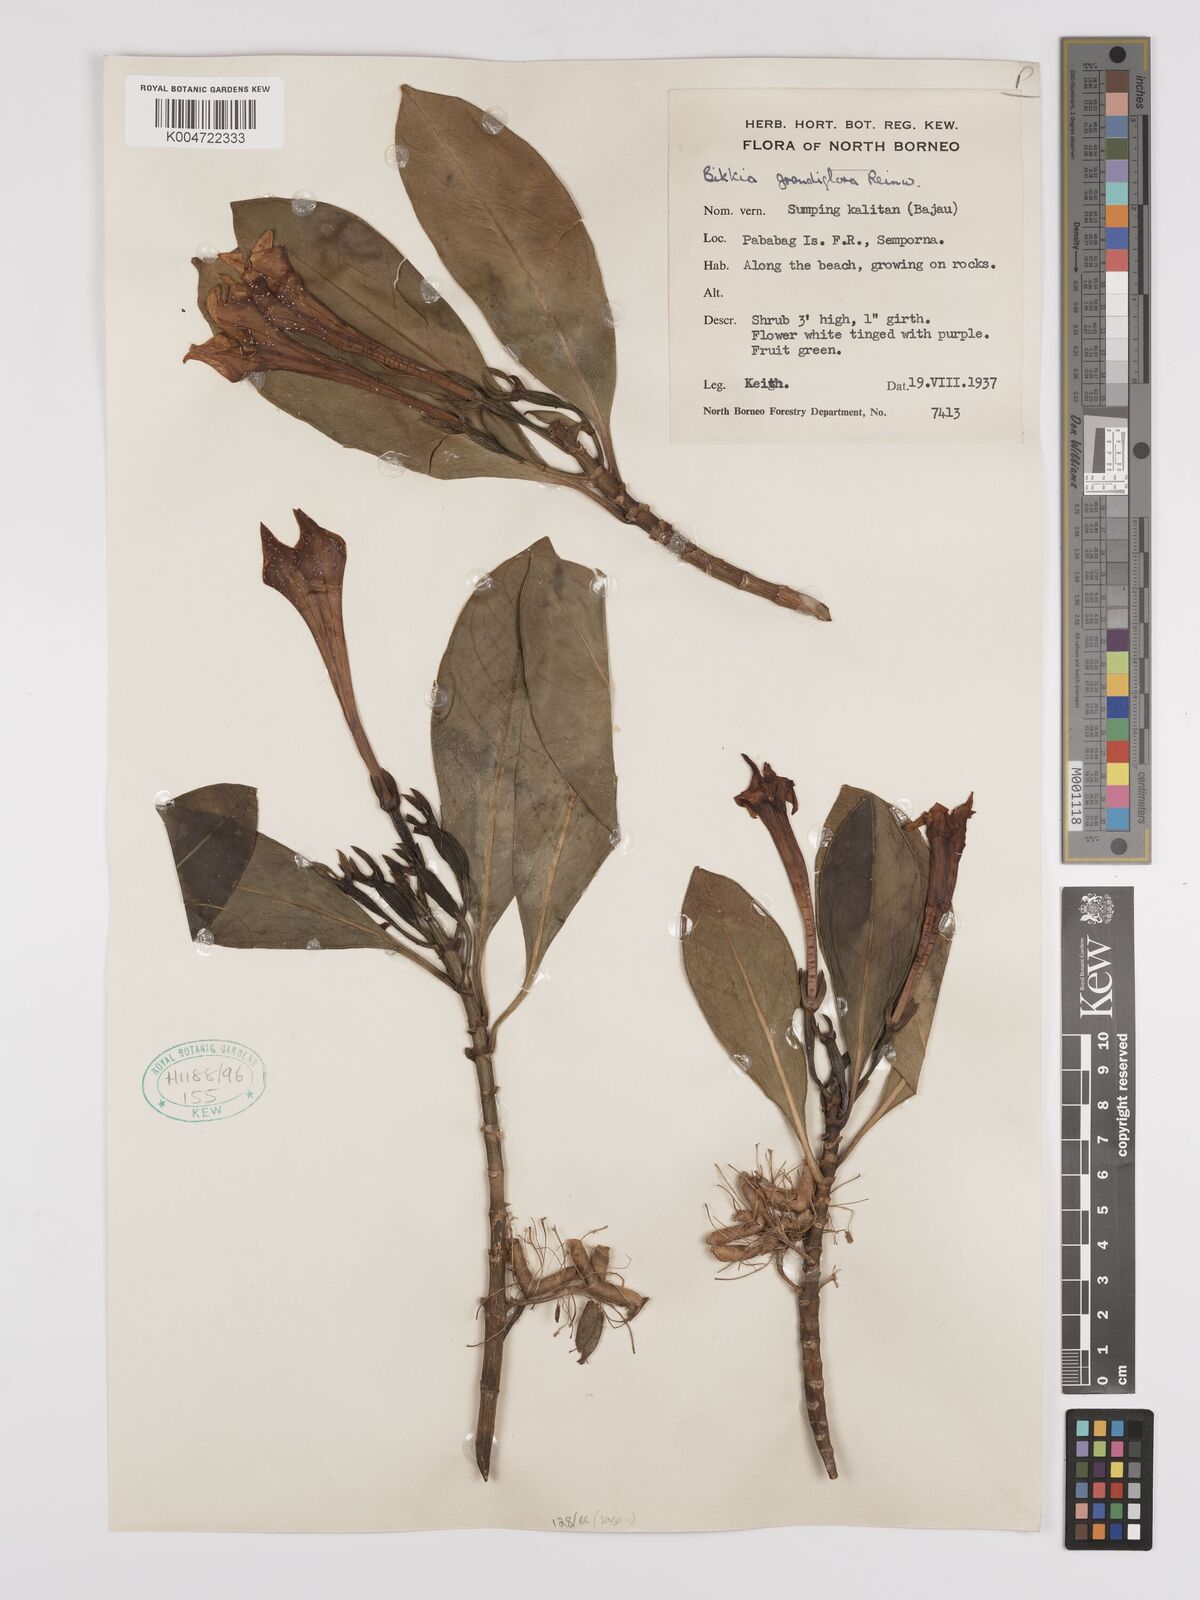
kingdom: Plantae
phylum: Tracheophyta
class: Magnoliopsida
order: Gentianales
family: Rubiaceae
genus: Bikkia
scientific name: Bikkia tetrandra
